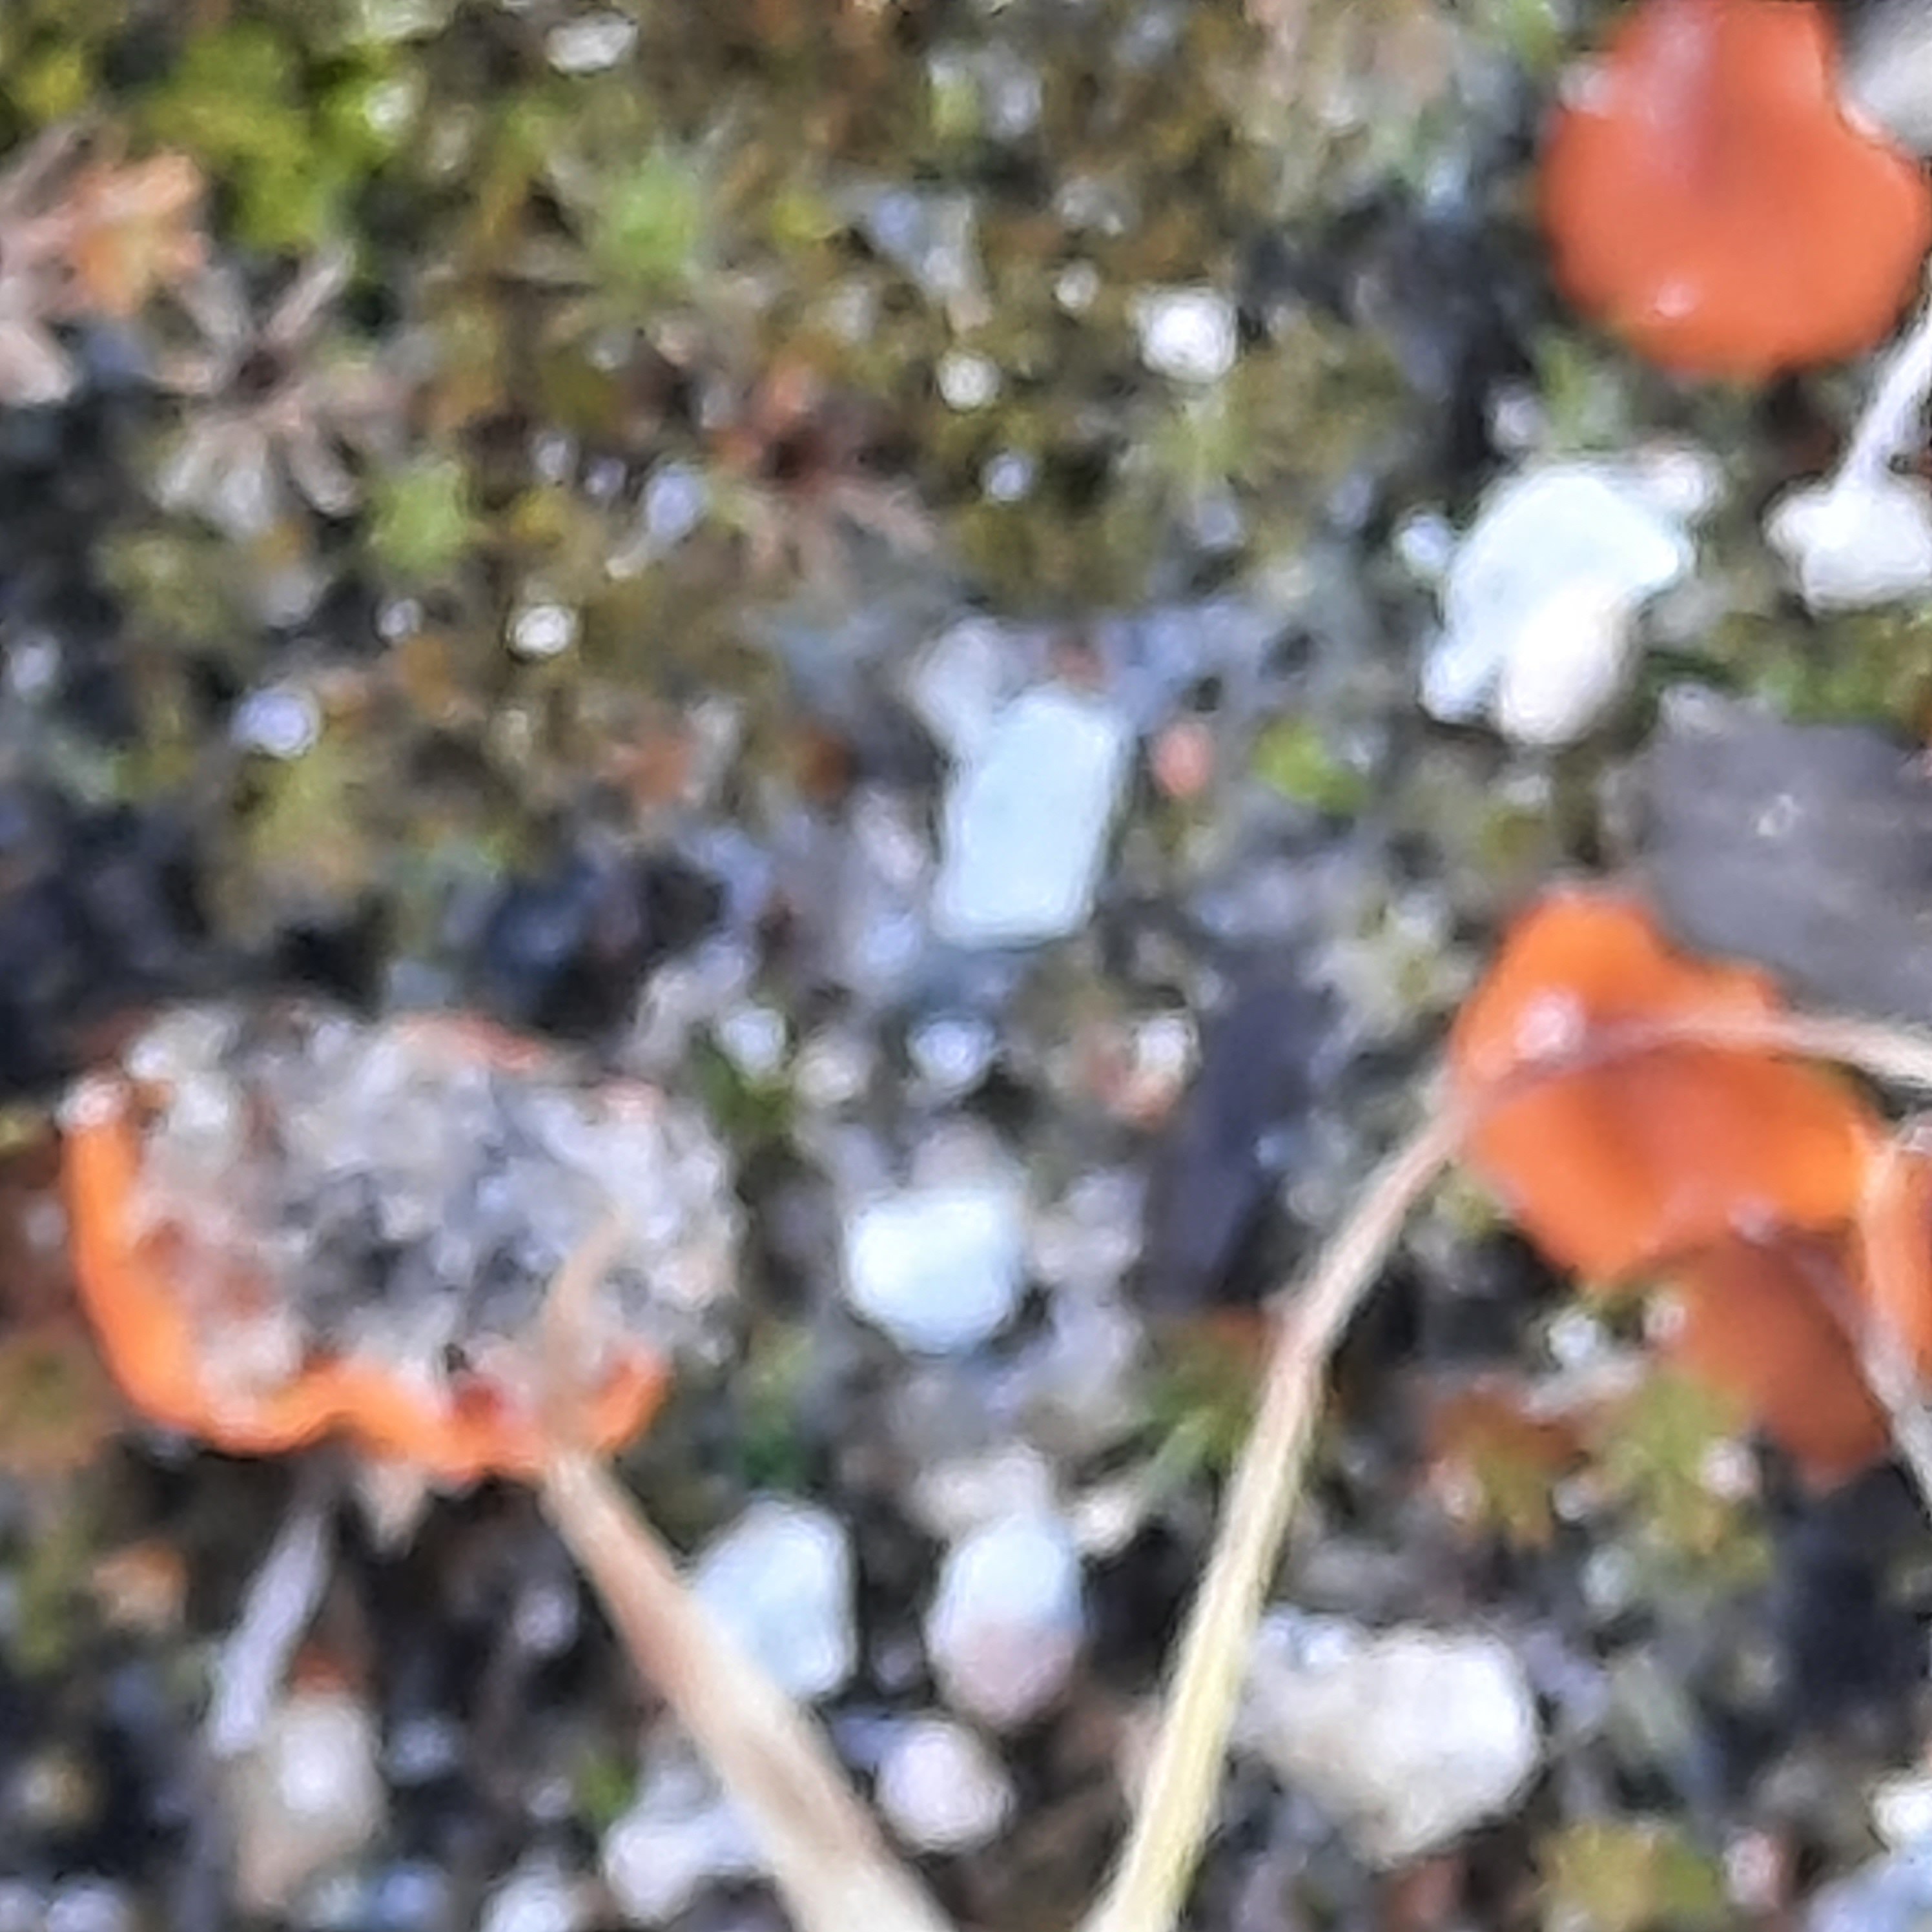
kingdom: Fungi
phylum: Ascomycota
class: Pezizomycetes
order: Pezizales
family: Pyronemataceae
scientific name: Pyronemataceae
